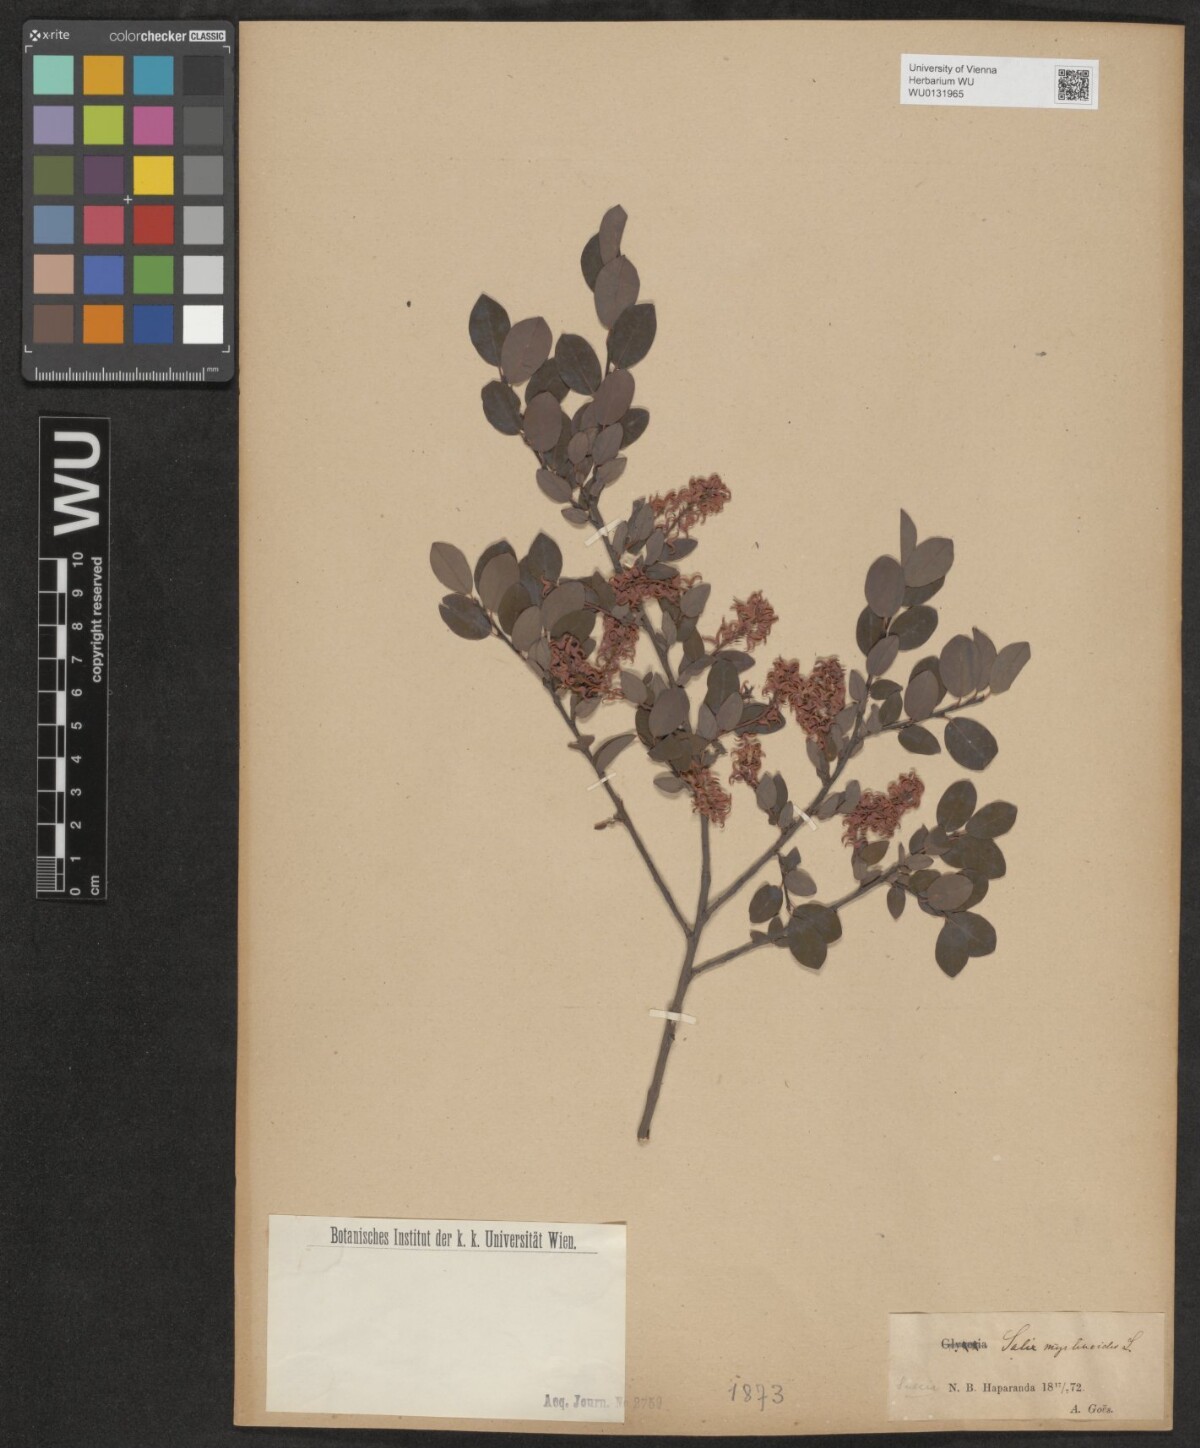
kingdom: Plantae
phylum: Tracheophyta
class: Magnoliopsida
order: Malpighiales
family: Salicaceae
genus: Salix
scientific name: Salix myrtilloides
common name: Myrtle-leaved willow
